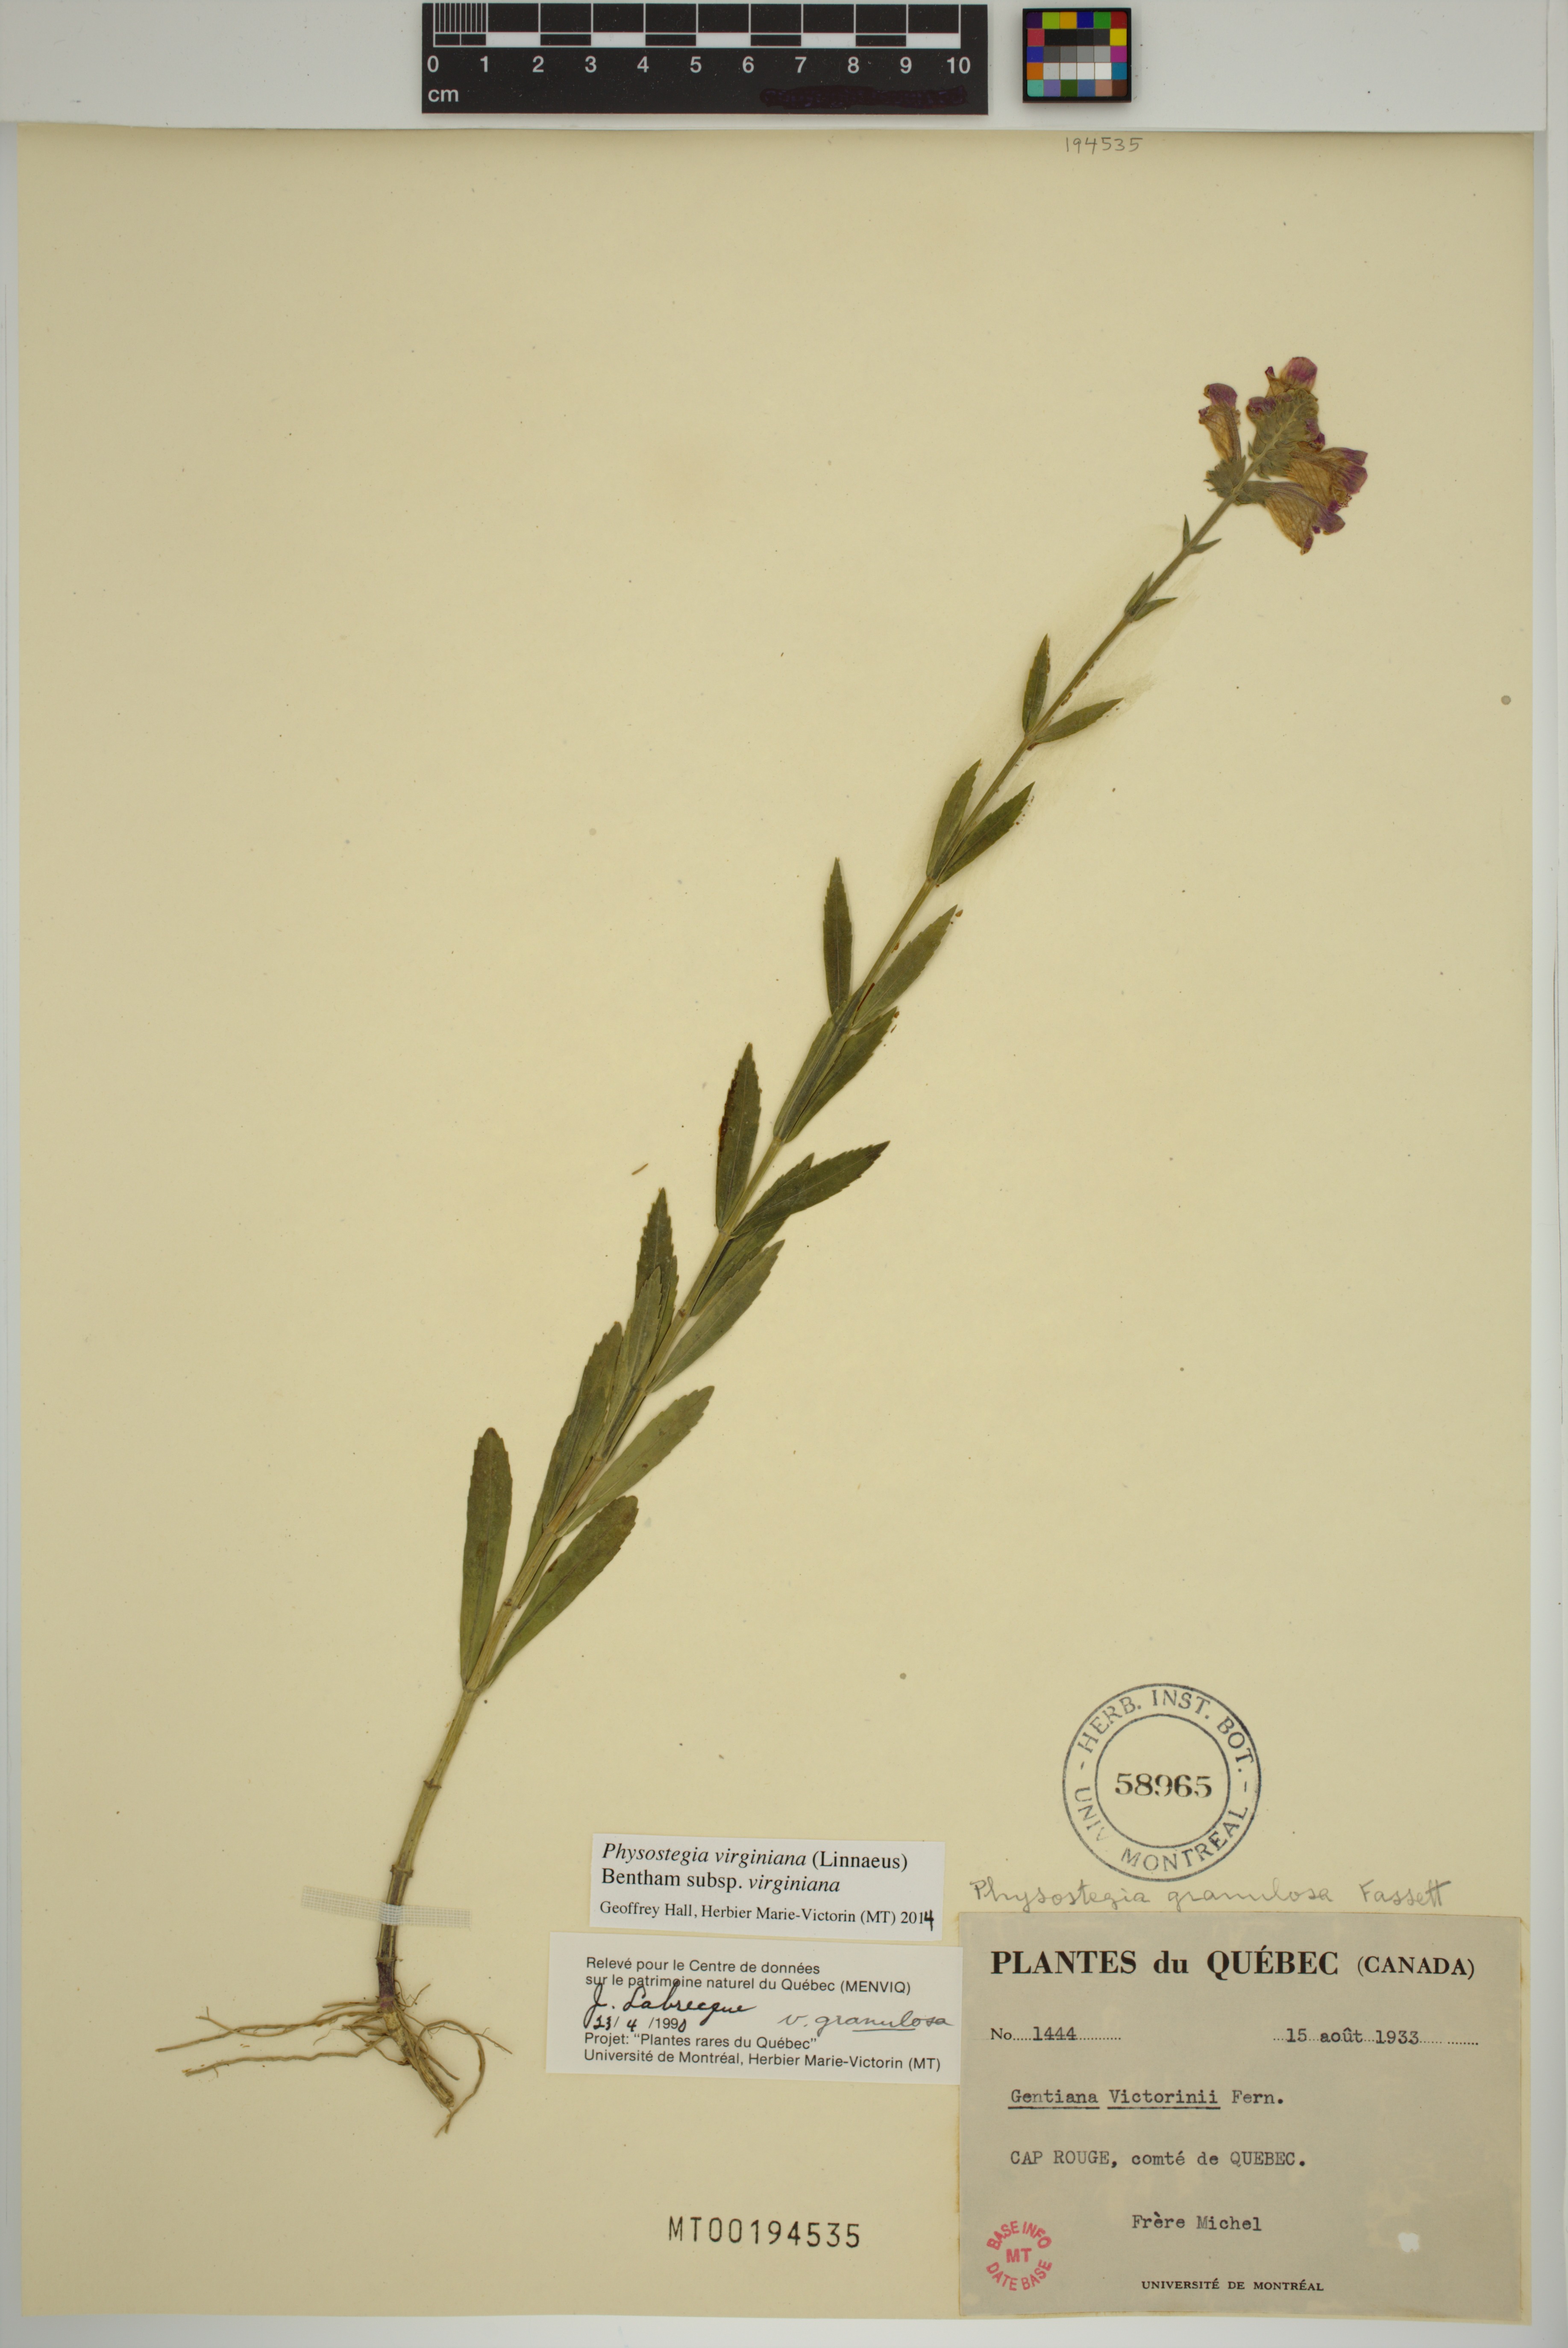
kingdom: Plantae
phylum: Tracheophyta
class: Magnoliopsida
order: Lamiales
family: Lamiaceae
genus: Physostegia
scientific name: Physostegia virginiana
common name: Obedient-plant
